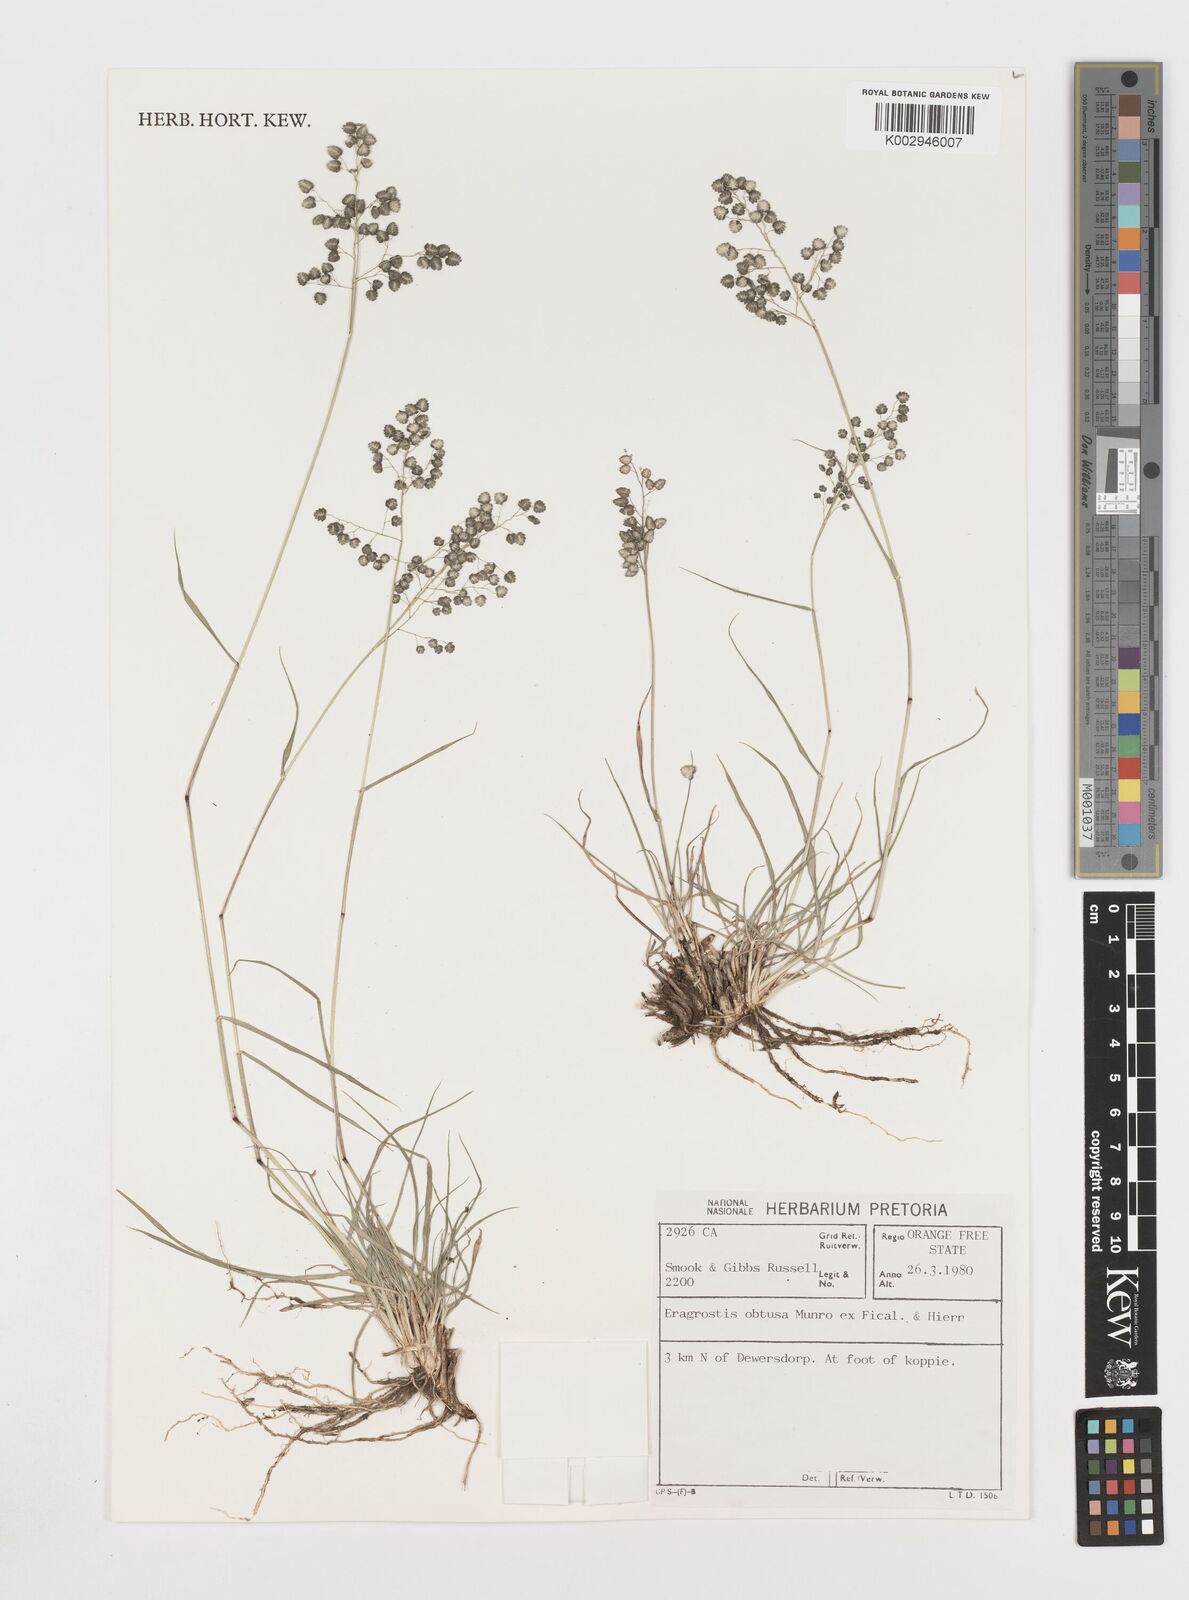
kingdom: Plantae
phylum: Tracheophyta
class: Liliopsida
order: Poales
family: Poaceae
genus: Eragrostis
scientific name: Eragrostis obtusa
